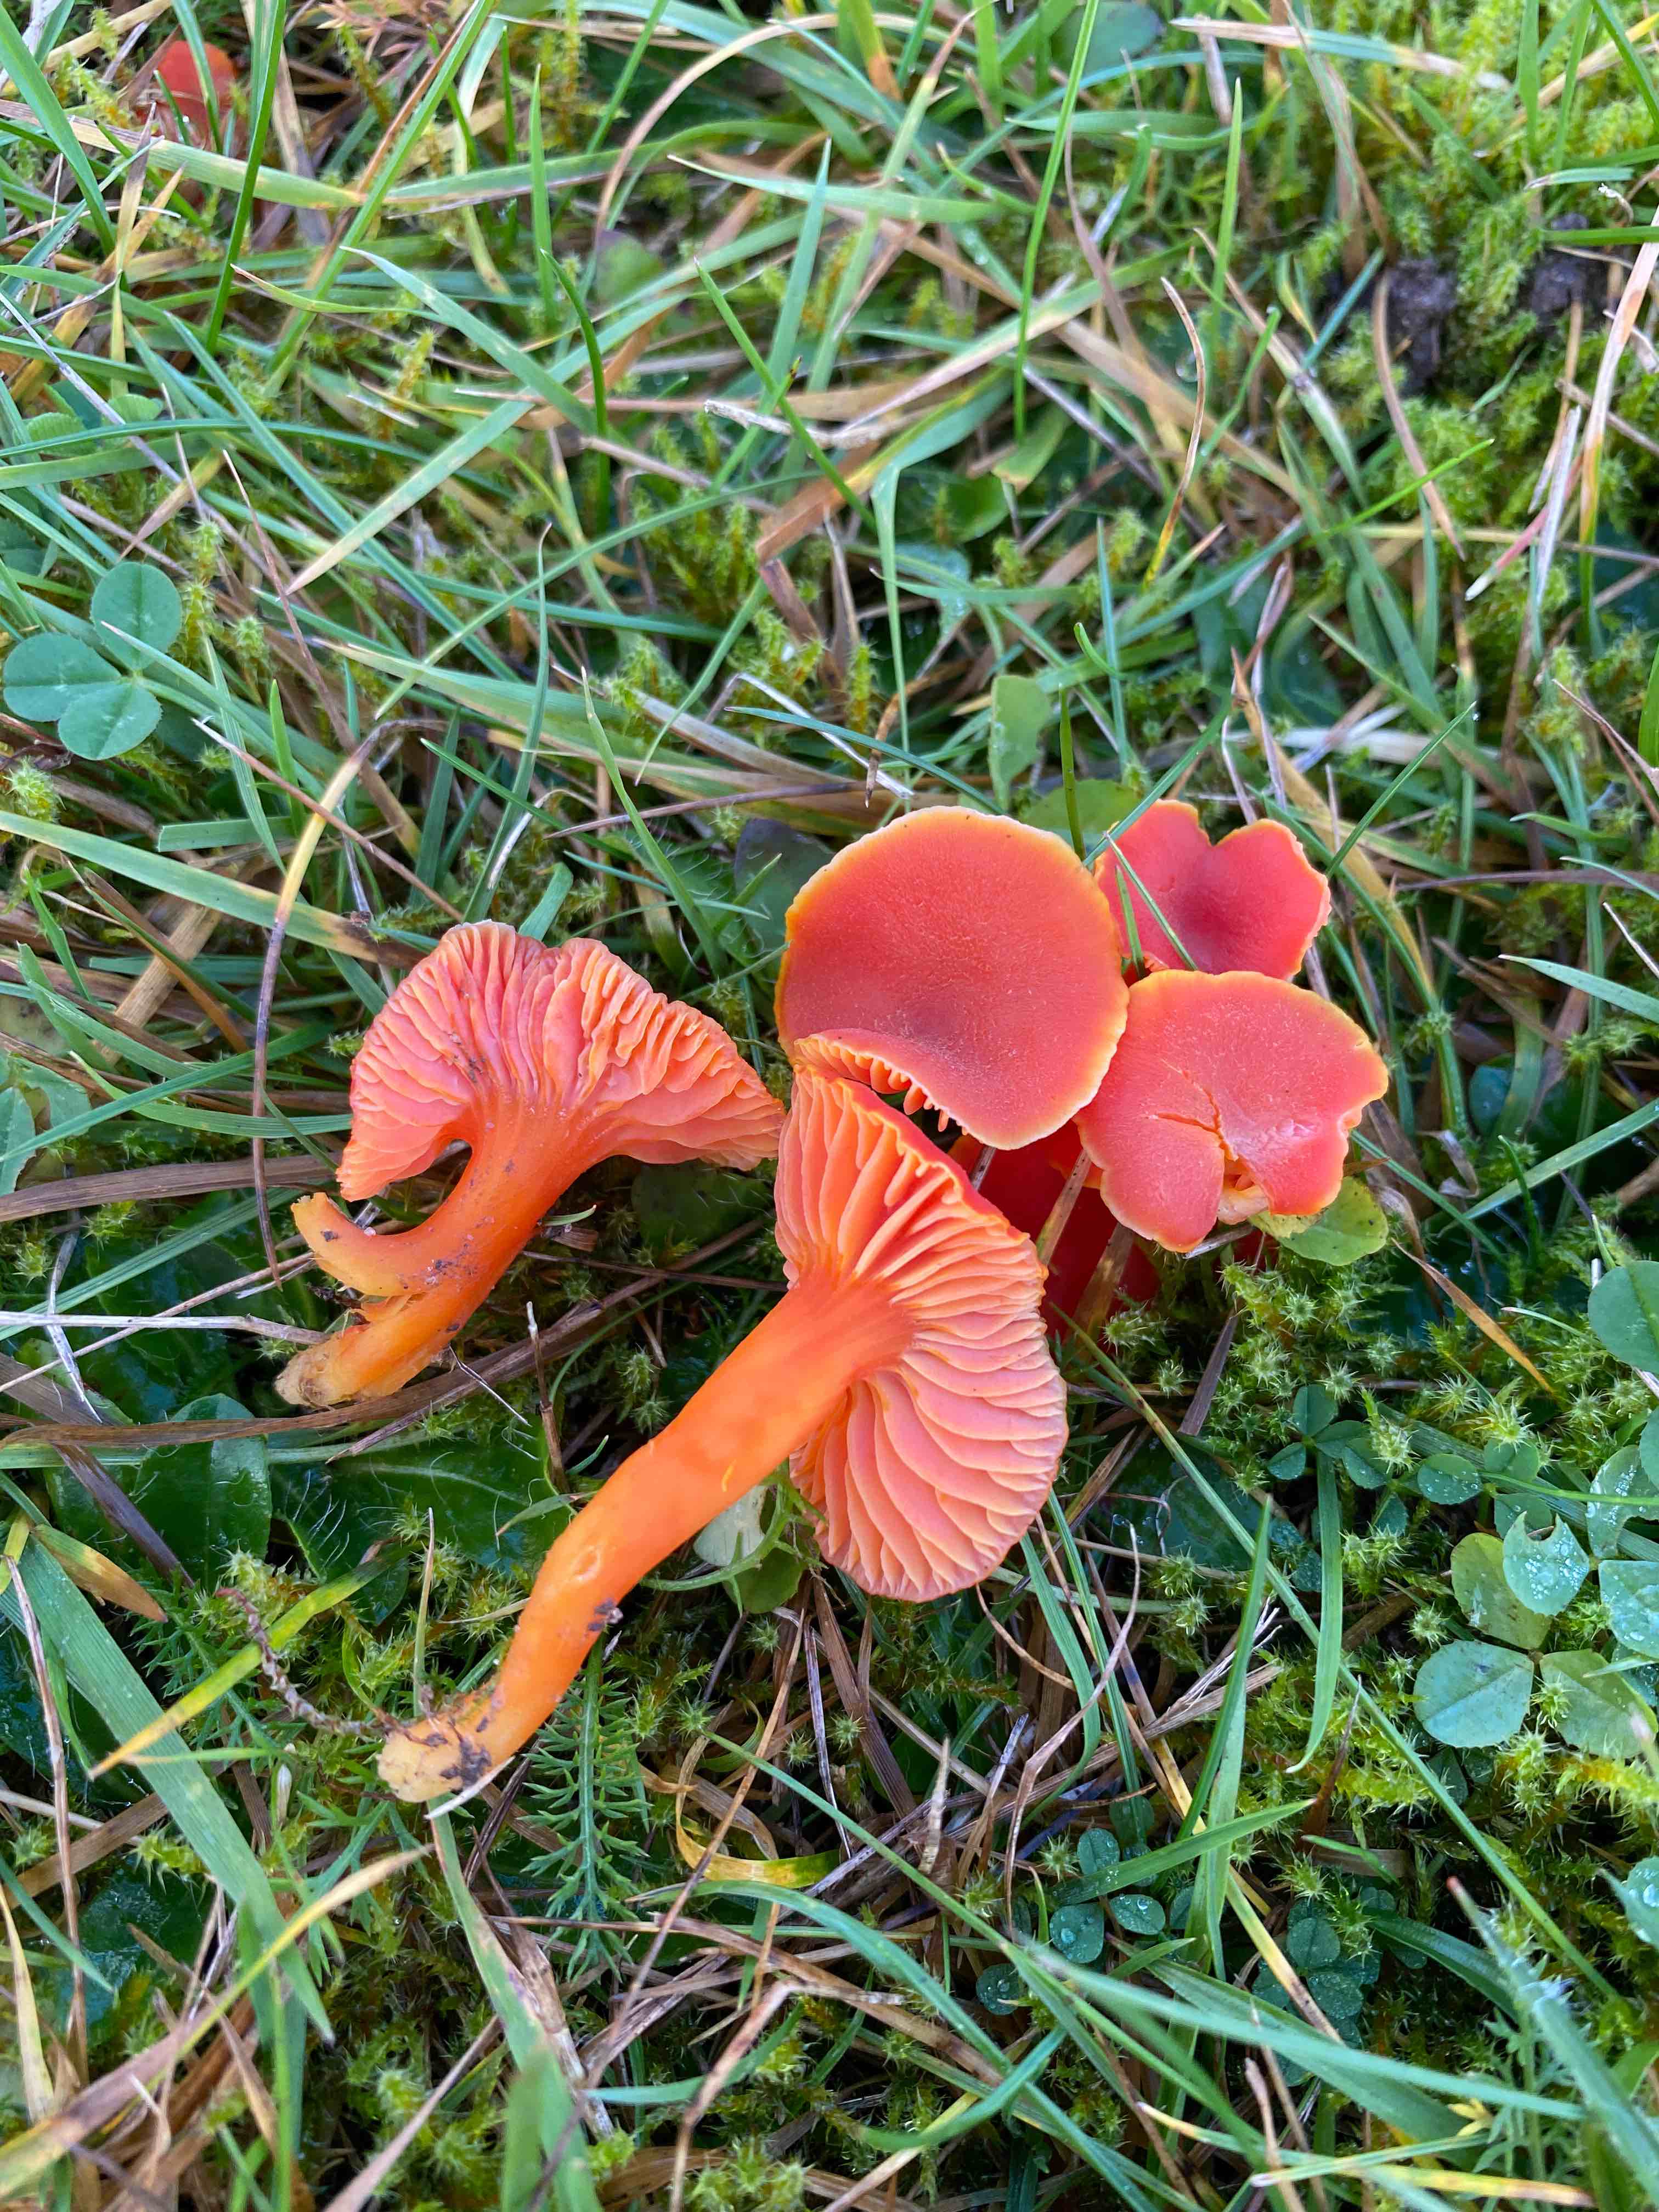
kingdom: Fungi
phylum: Basidiomycota
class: Agaricomycetes
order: Agaricales
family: Hygrophoraceae
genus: Hygrocybe
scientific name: Hygrocybe miniata
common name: mønje-vokshat
